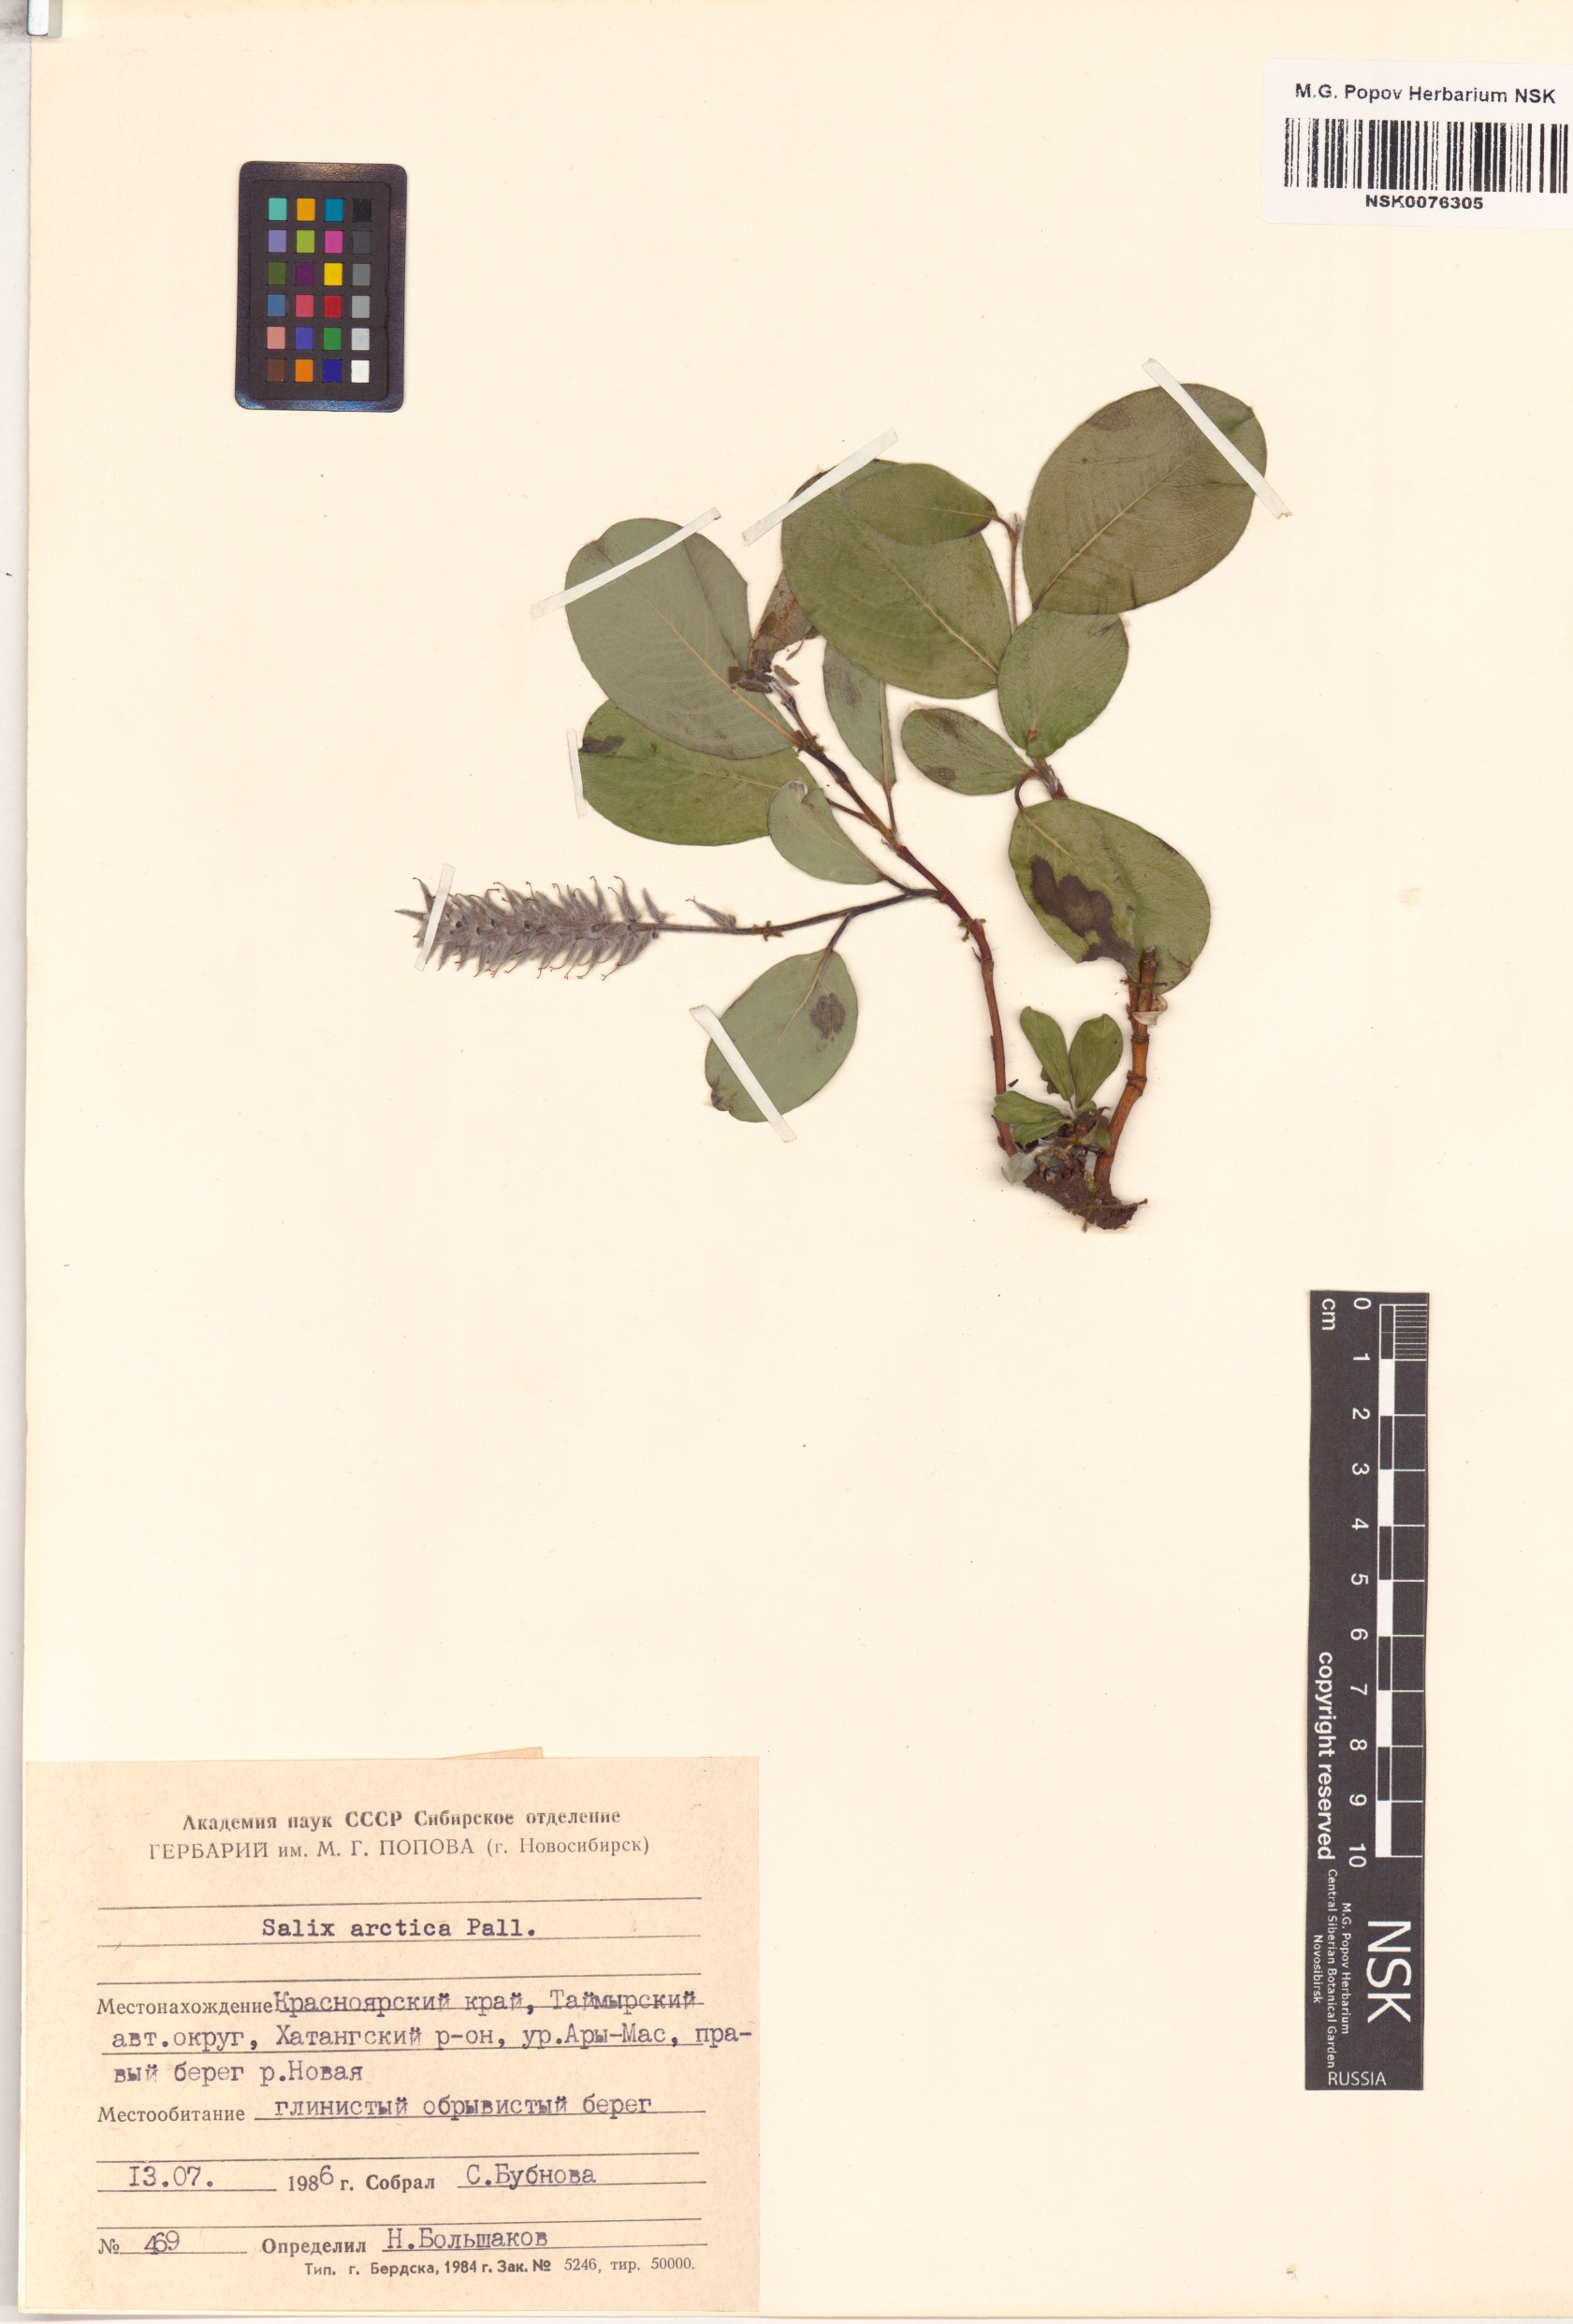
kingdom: Plantae
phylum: Tracheophyta
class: Magnoliopsida
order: Malpighiales
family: Salicaceae
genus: Salix
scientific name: Salix arctica
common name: Arctic willow
